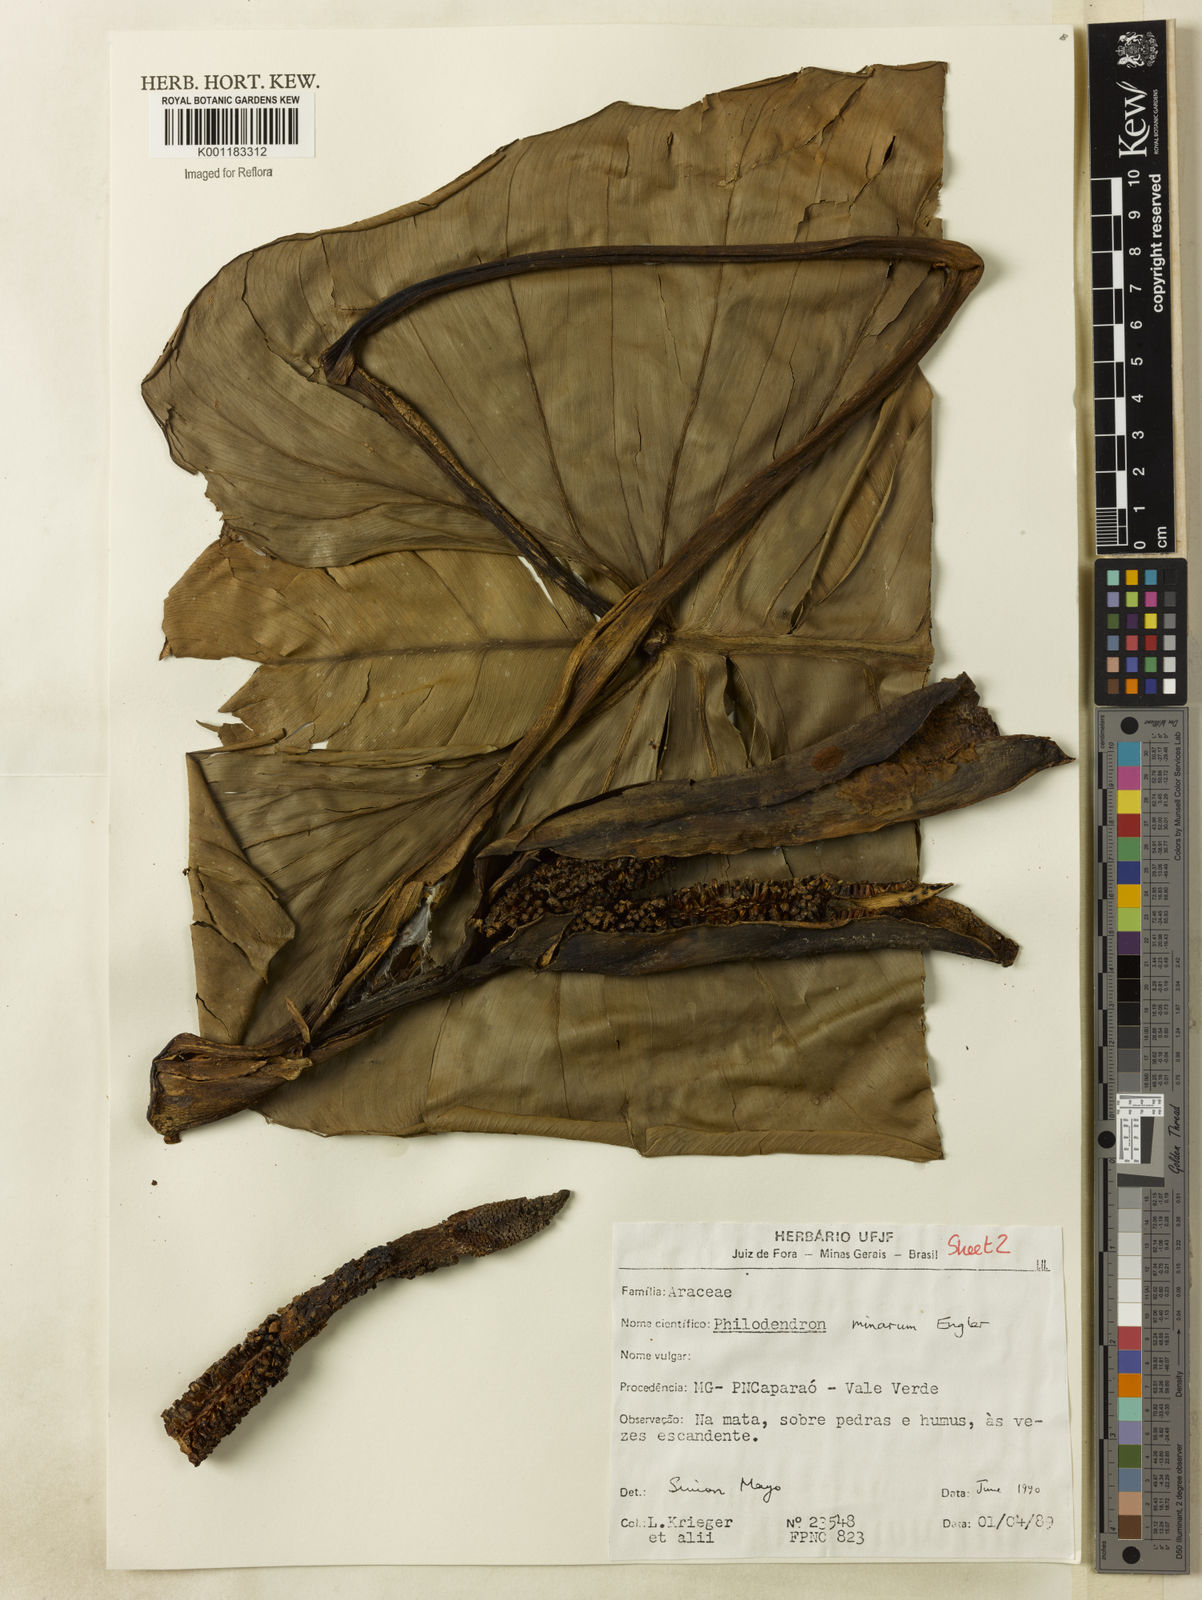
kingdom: Plantae
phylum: Tracheophyta
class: Liliopsida
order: Alismatales
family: Araceae
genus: Philodendron
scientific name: Philodendron minarum
